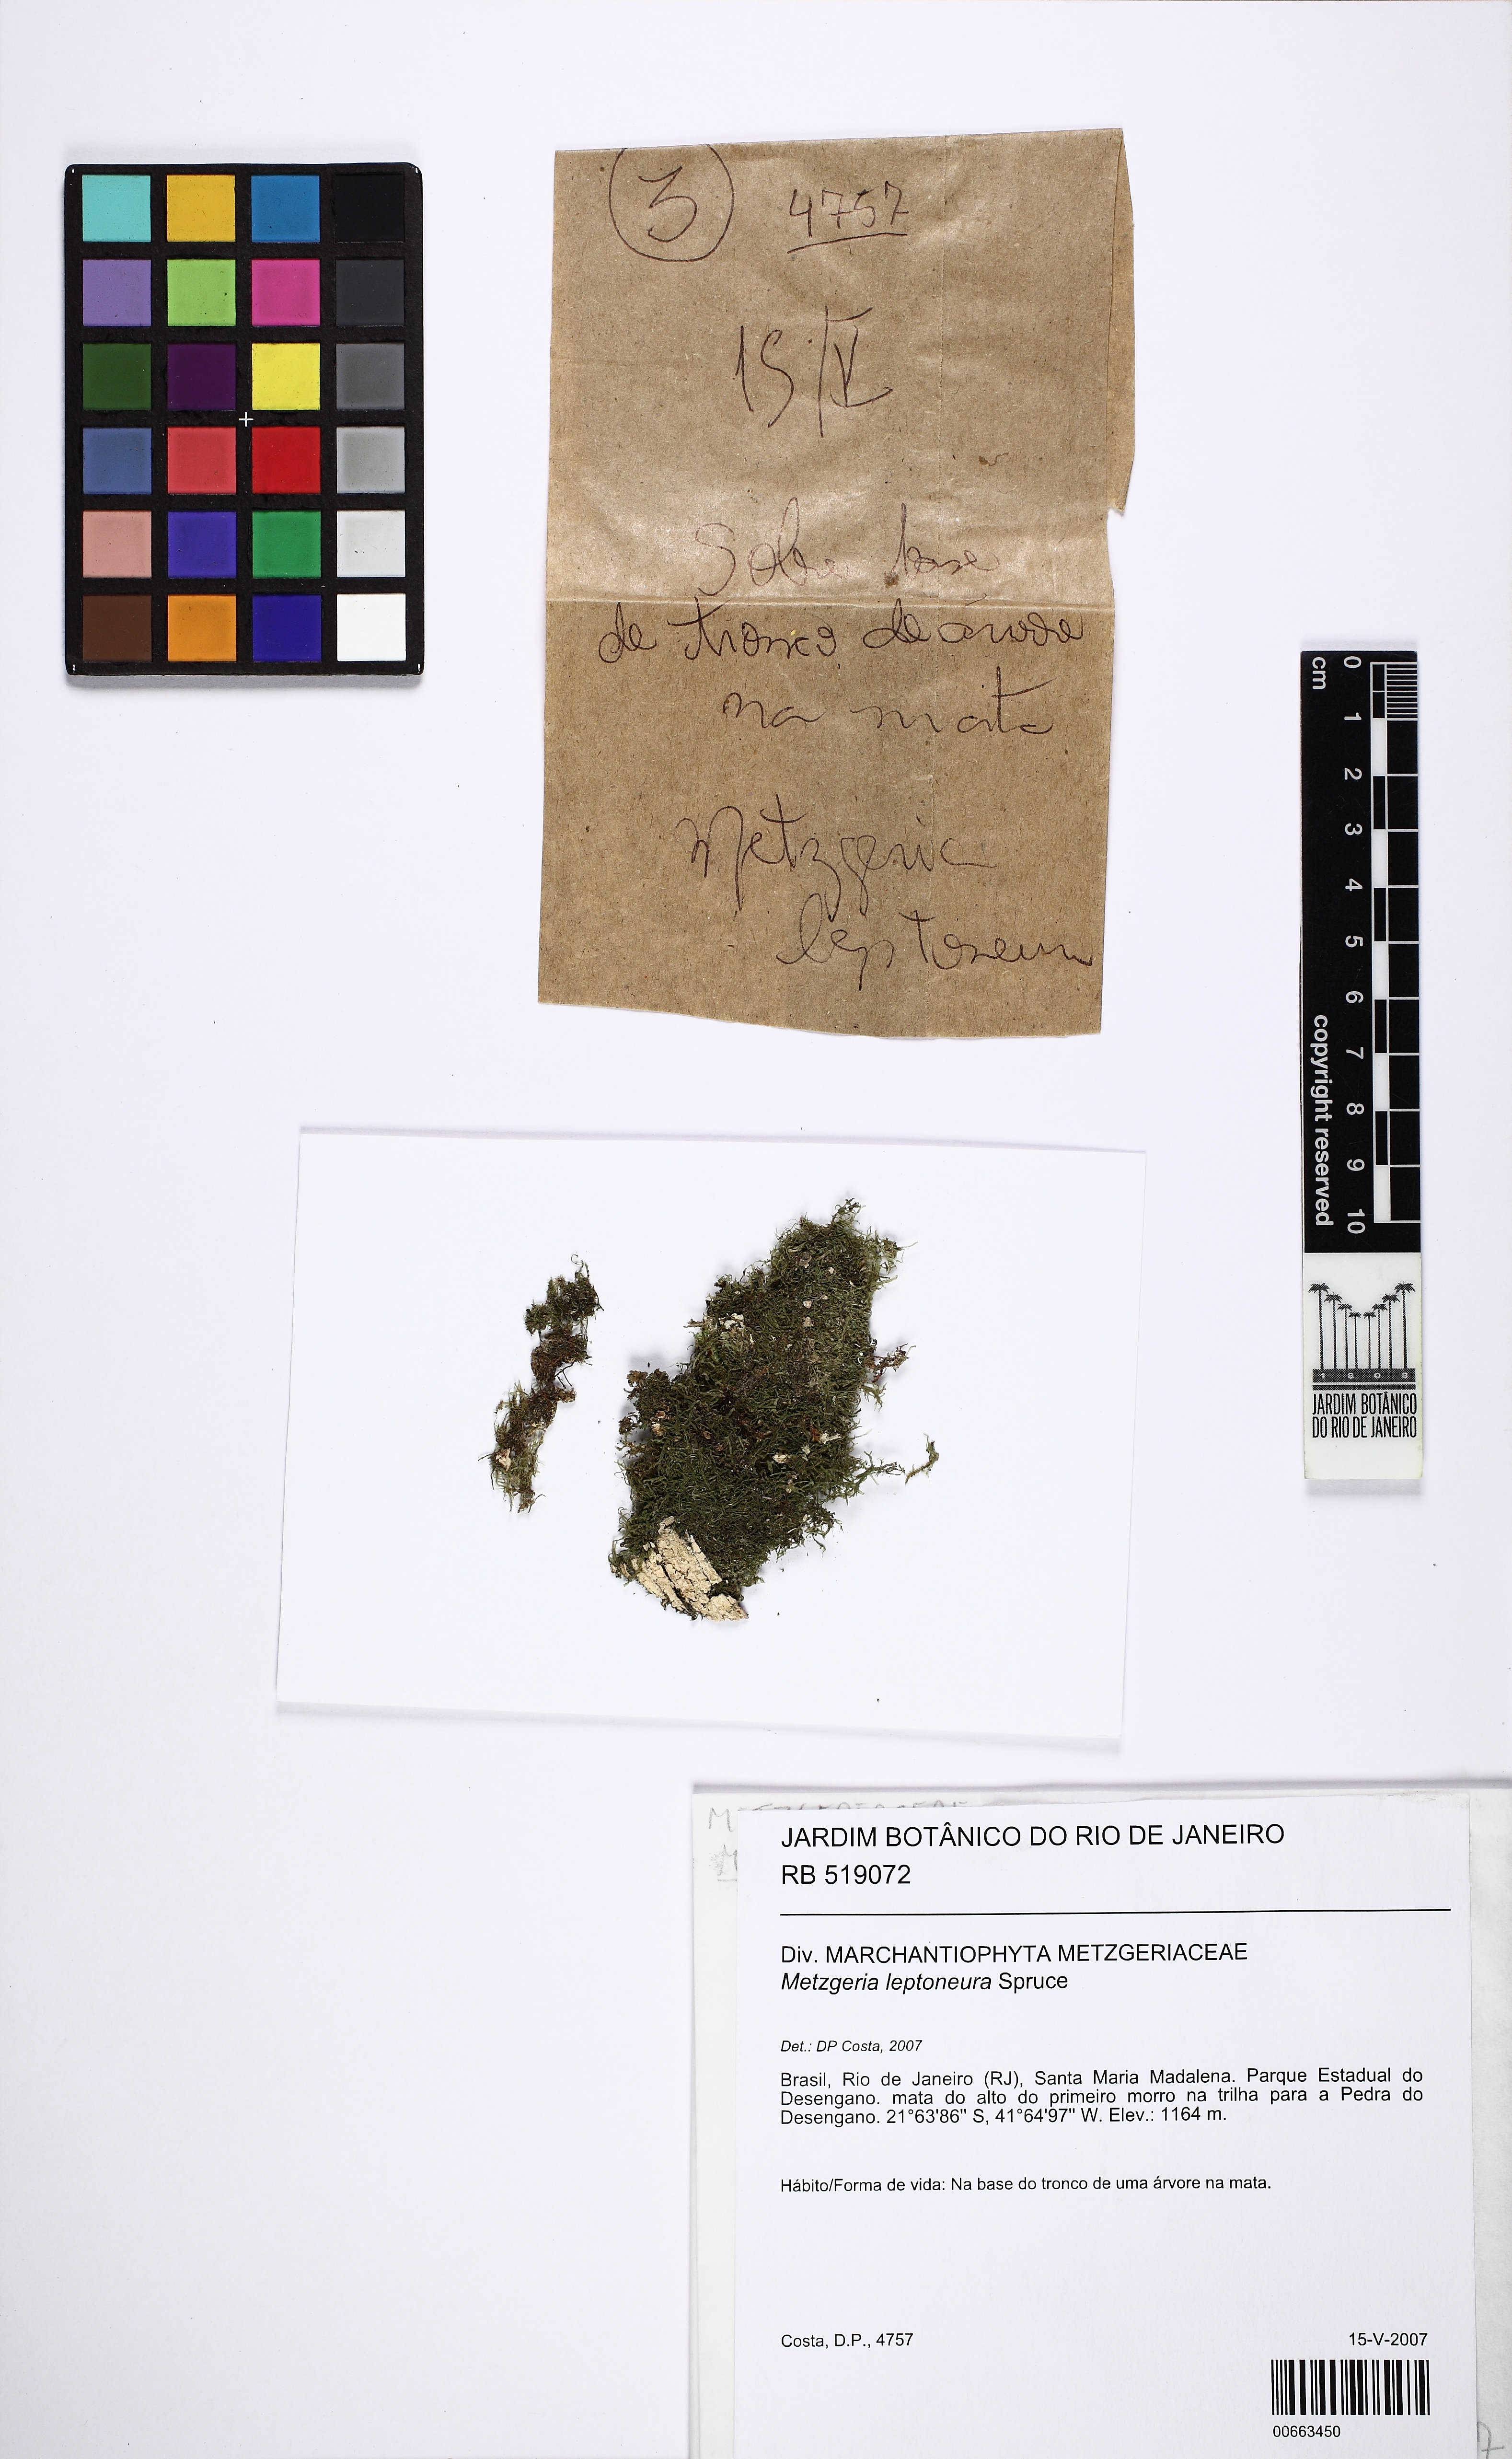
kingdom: Plantae
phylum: Marchantiophyta
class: Jungermanniopsida
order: Metzgeriales
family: Metzgeriaceae
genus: Metzgeria
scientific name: Metzgeria leptoneura
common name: Hooked veilwort
